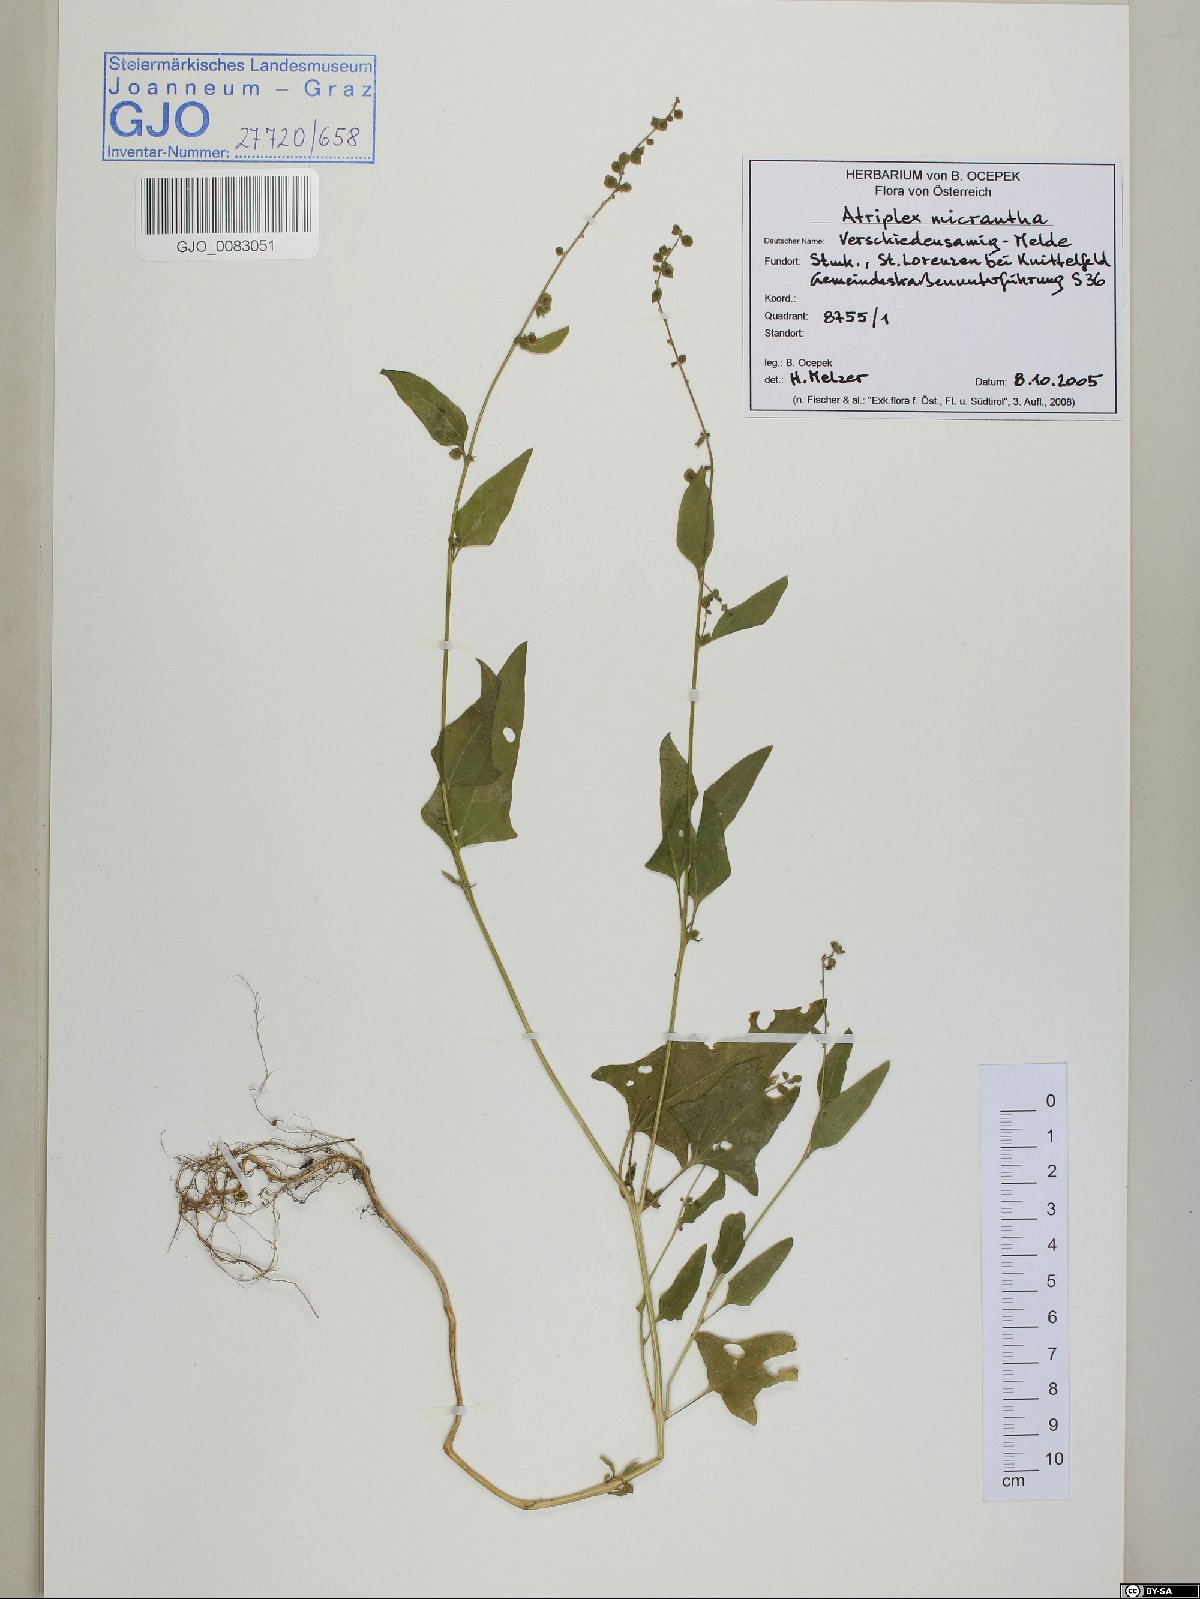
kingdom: Plantae
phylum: Tracheophyta
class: Magnoliopsida
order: Caryophyllales
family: Amaranthaceae
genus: Atriplex
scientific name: Atriplex micrantha
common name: Twoscale saltbush
